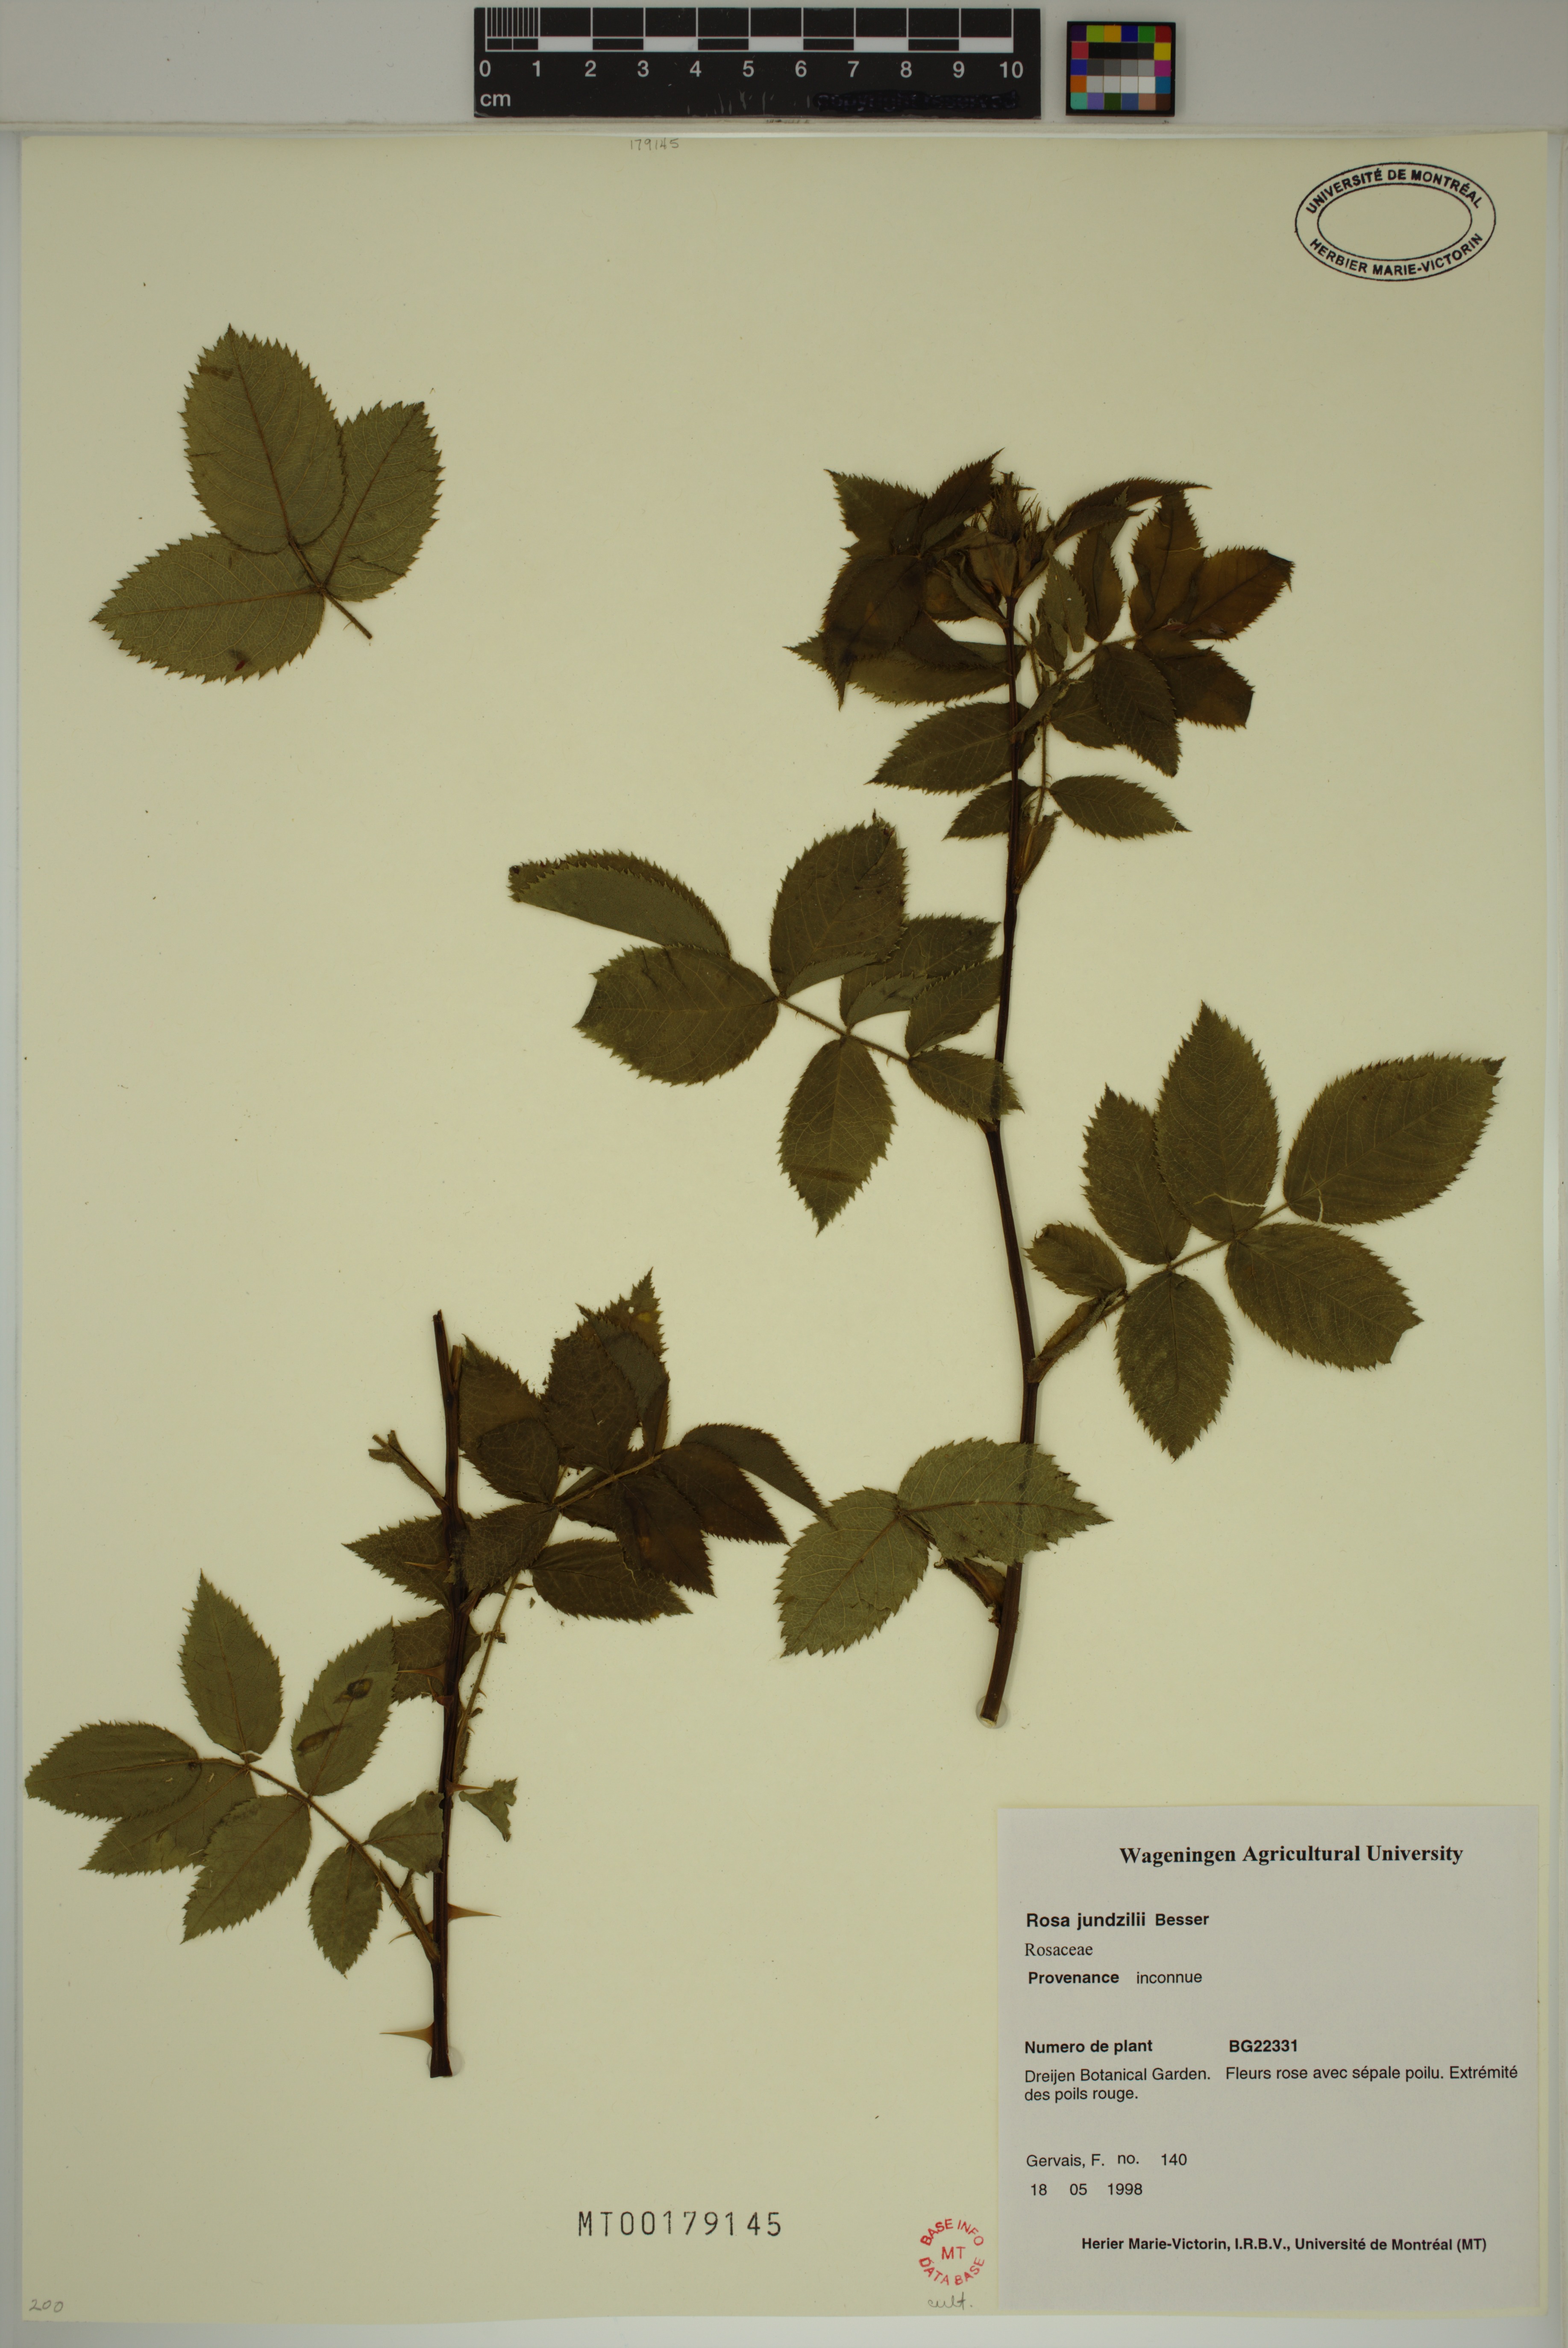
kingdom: Plantae
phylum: Tracheophyta
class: Magnoliopsida
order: Rosales
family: Rosaceae
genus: Rosa
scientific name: Rosa marginata
